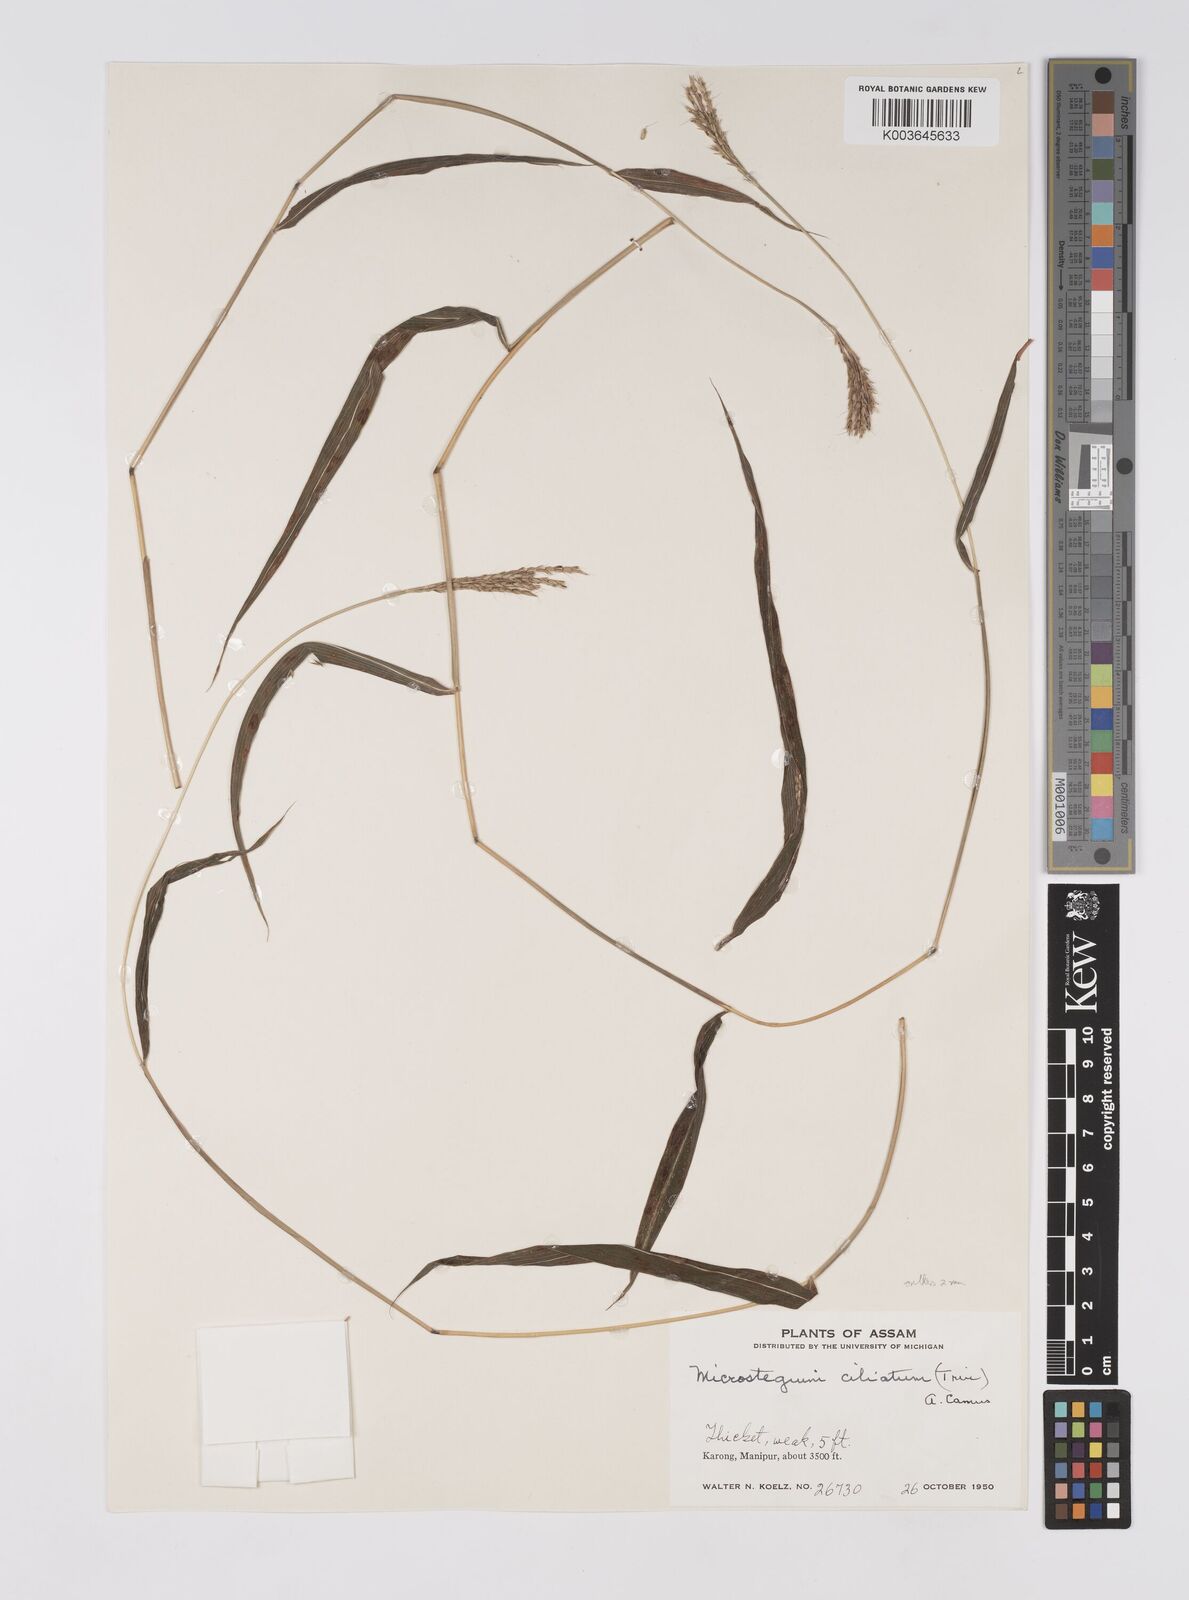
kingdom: Plantae
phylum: Tracheophyta
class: Liliopsida
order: Poales
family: Poaceae
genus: Microstegium
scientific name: Microstegium fasciculatum
